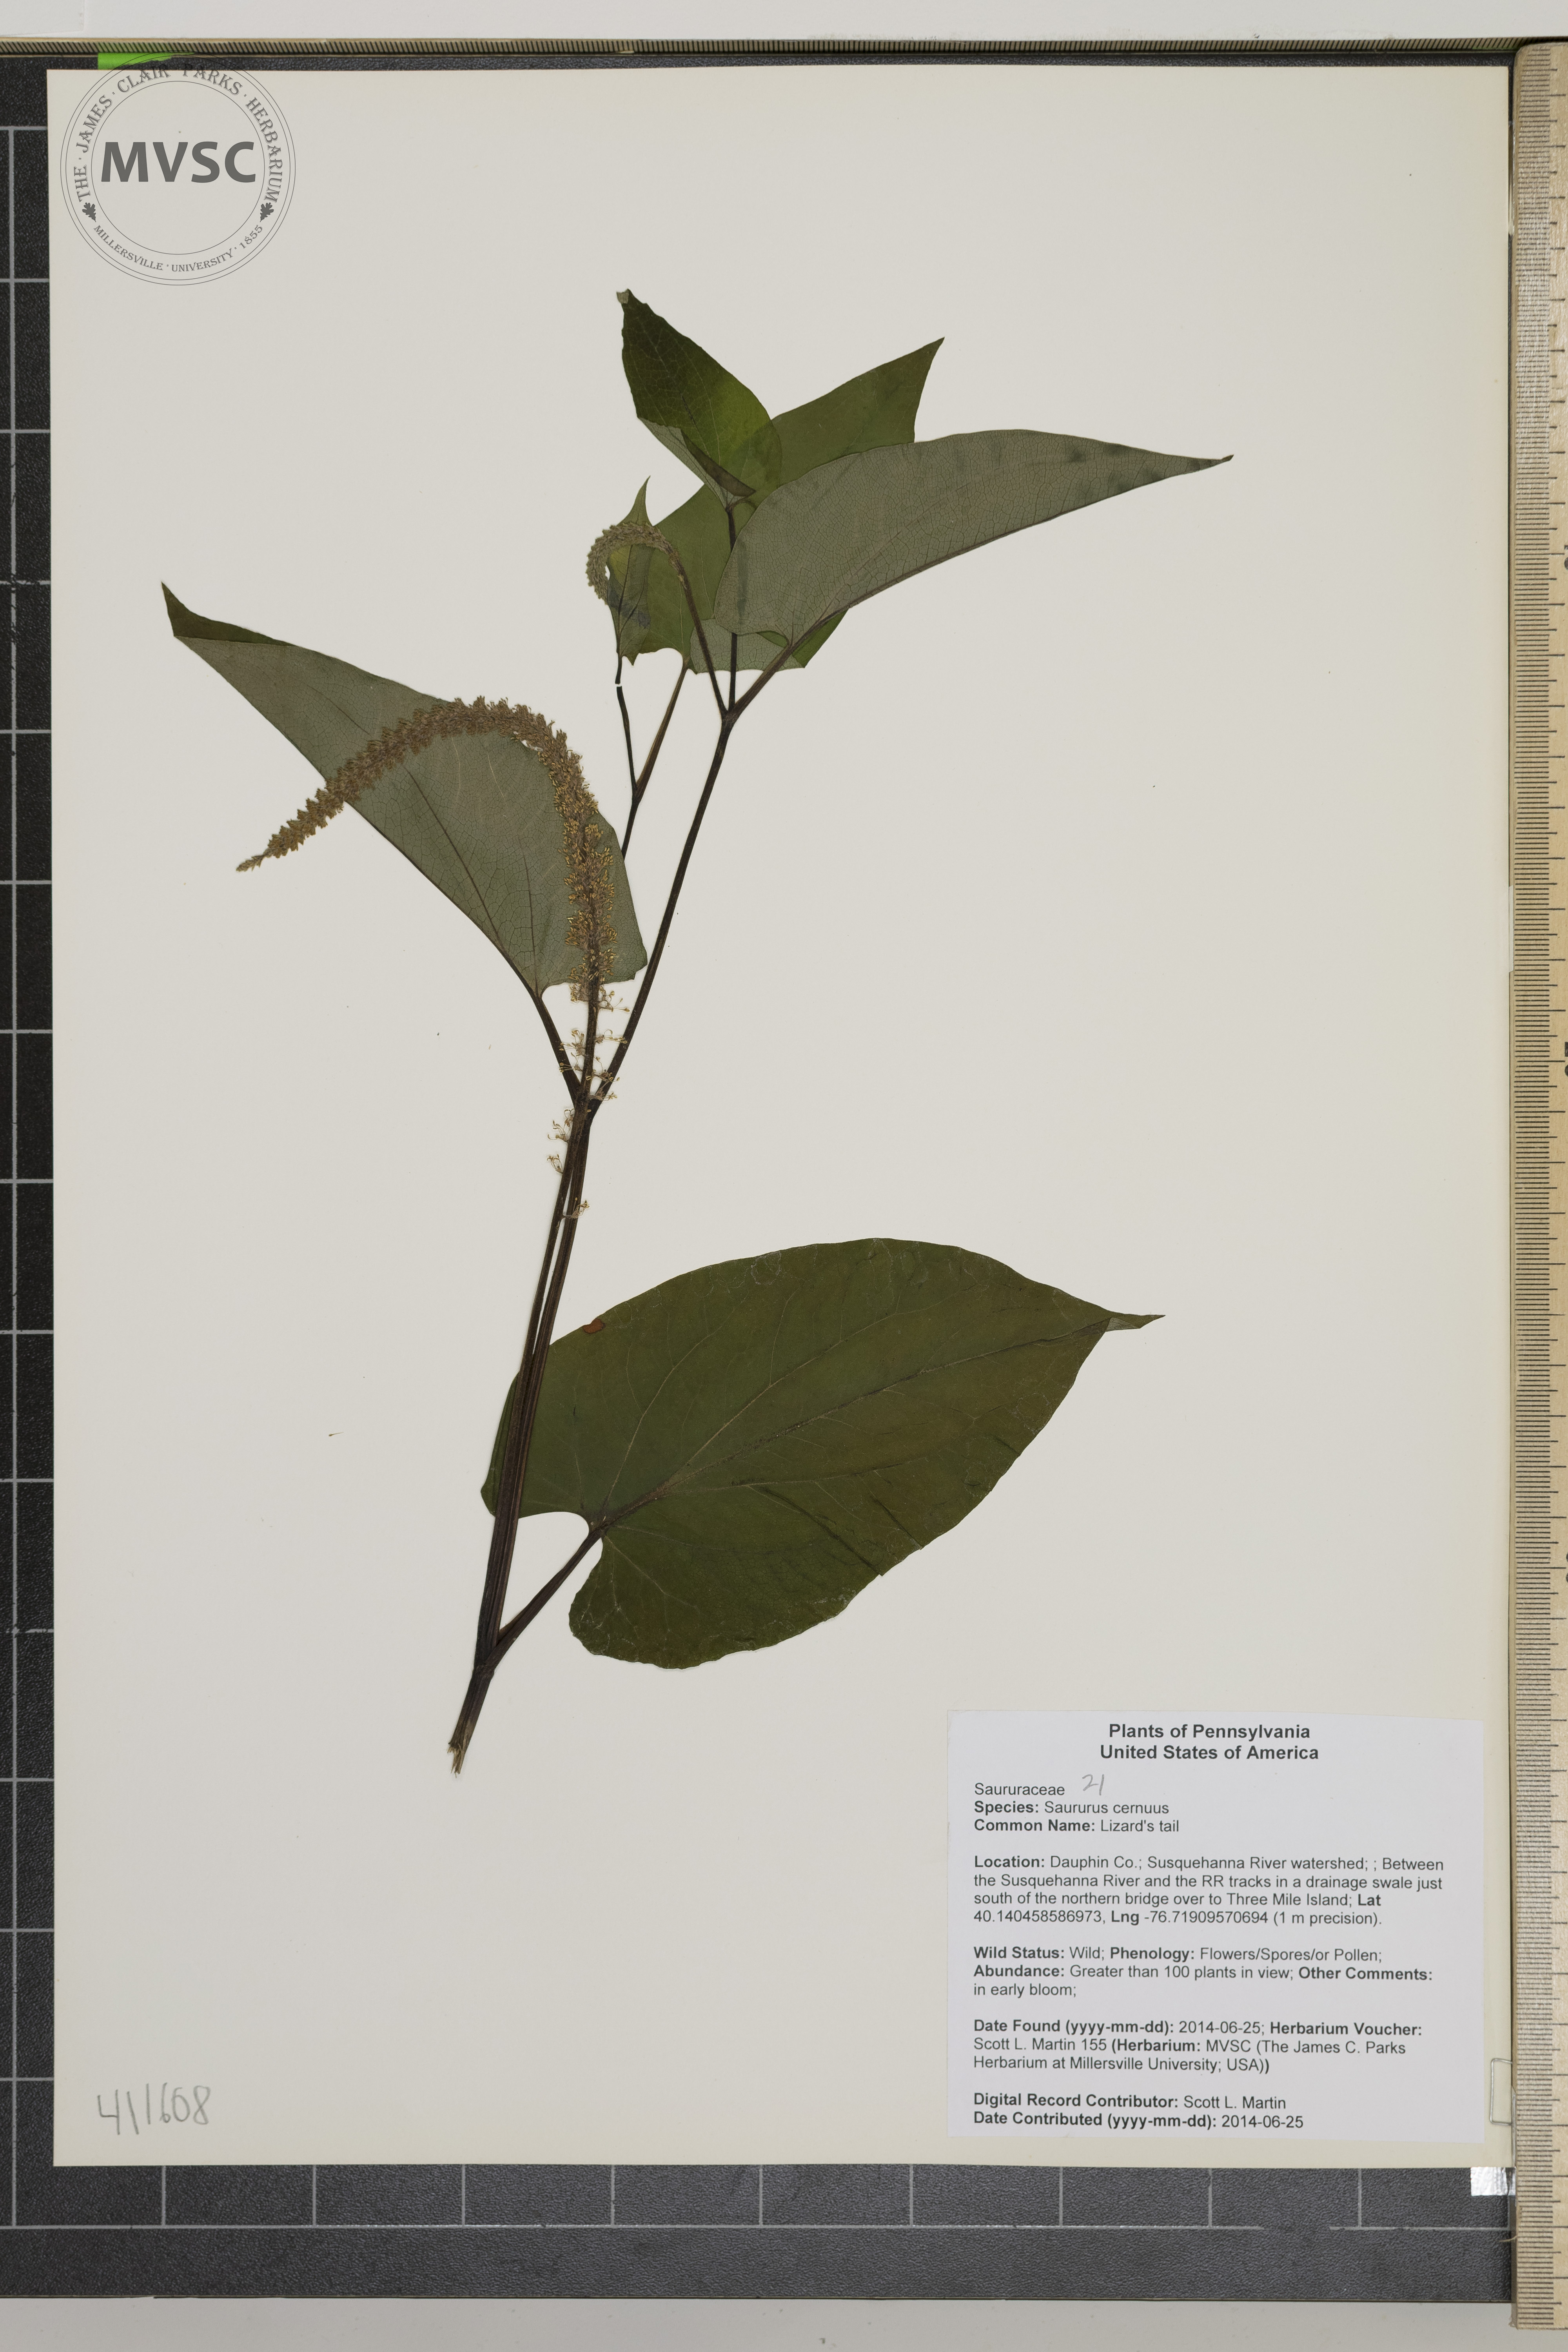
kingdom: Plantae
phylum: Tracheophyta
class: Magnoliopsida
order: Piperales
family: Saururaceae
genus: Saururus
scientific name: Saururus cernuus
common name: Lizard's tail
